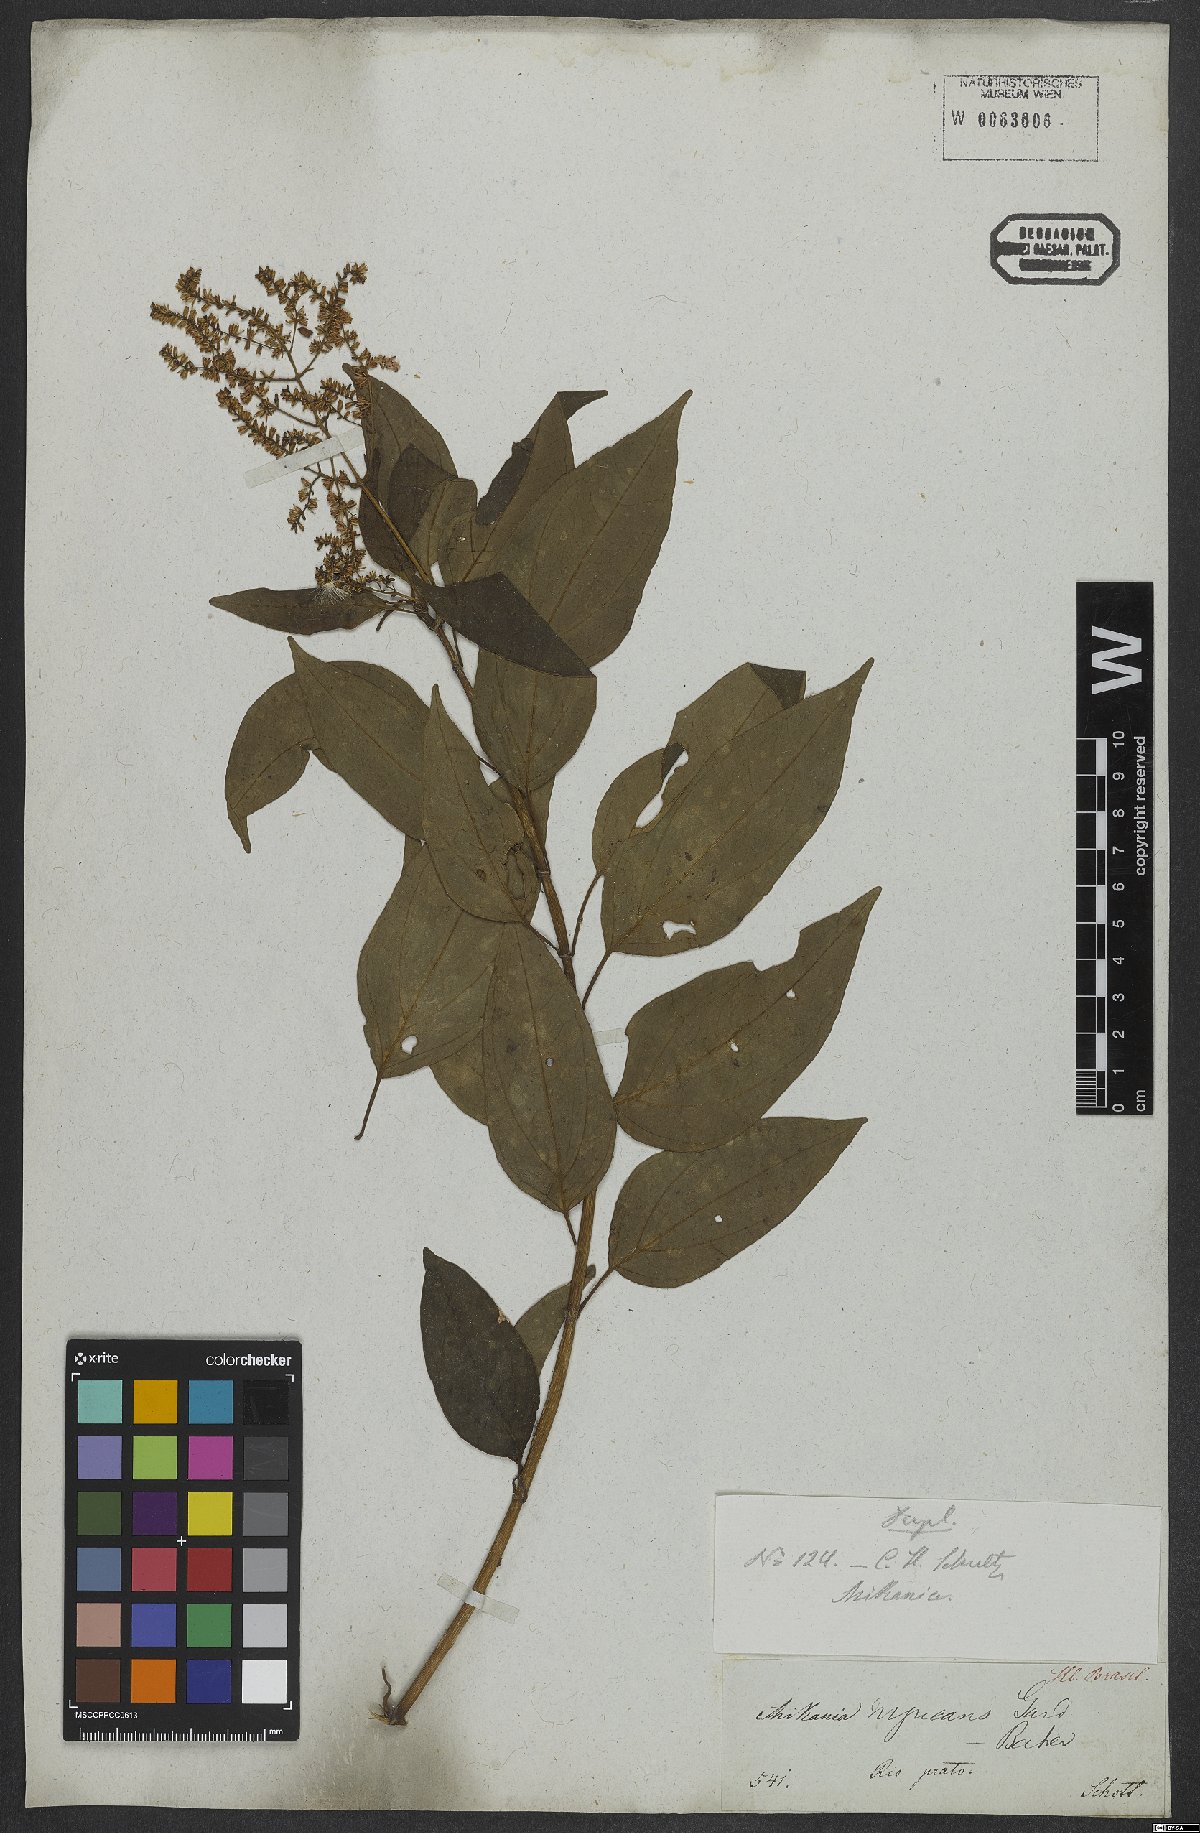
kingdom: Plantae
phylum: Tracheophyta
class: Magnoliopsida
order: Asterales
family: Asteraceae
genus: Mikania
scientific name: Mikania nigricans
